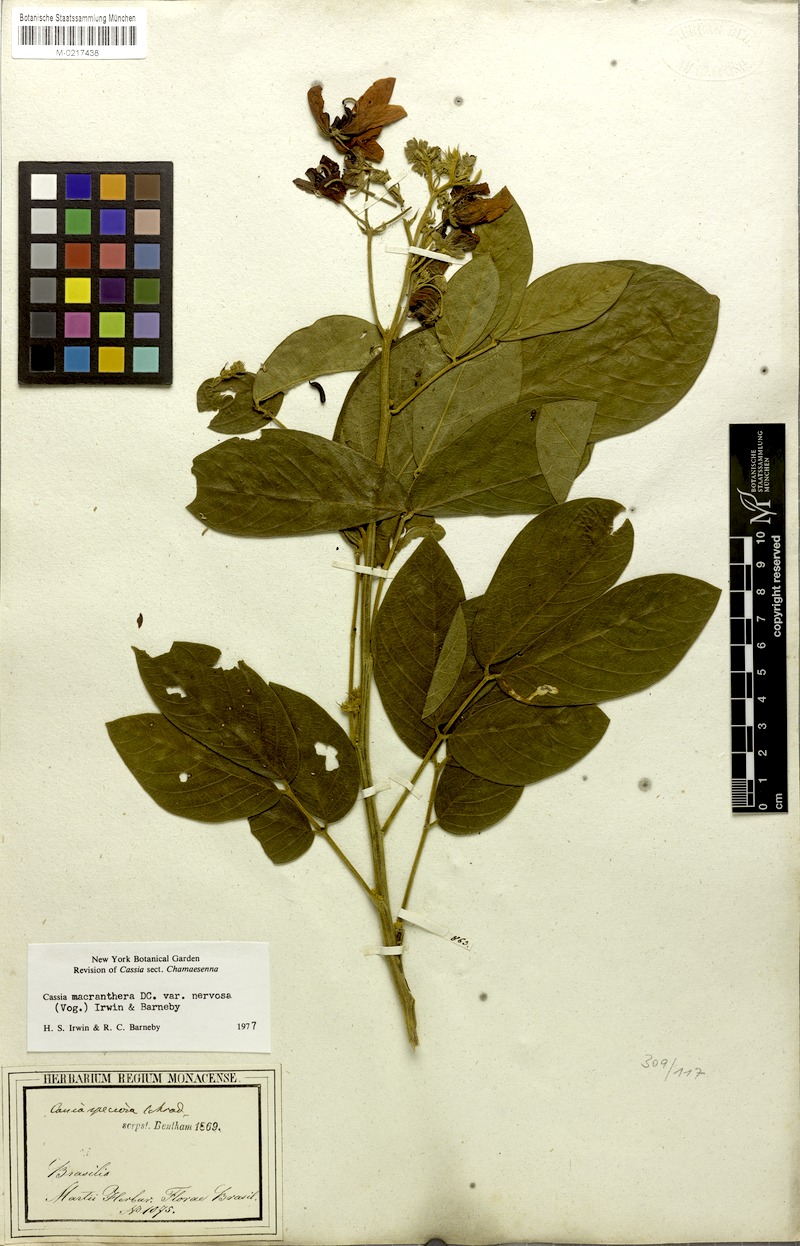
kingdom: Plantae
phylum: Tracheophyta
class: Magnoliopsida
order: Fabales
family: Fabaceae
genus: Senna
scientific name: Senna macranthera
